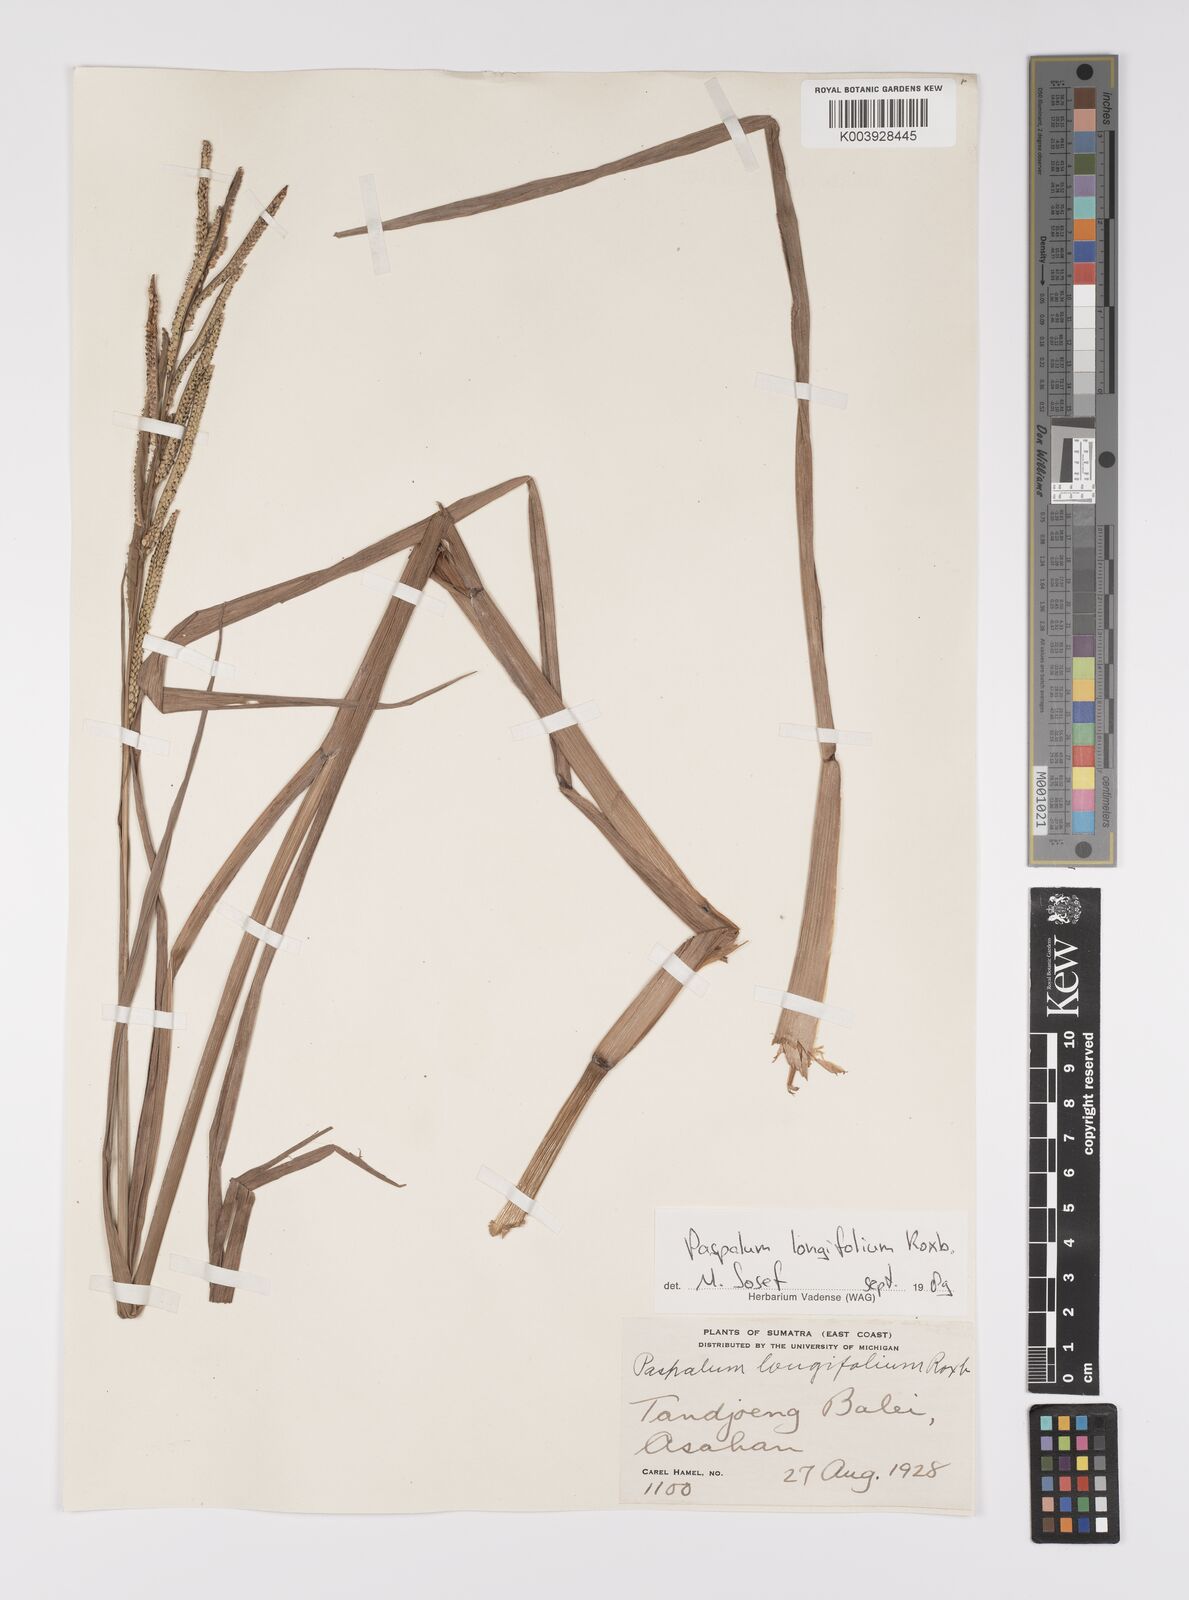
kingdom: Plantae
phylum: Tracheophyta
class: Liliopsida
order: Poales
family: Poaceae
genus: Paspalum
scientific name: Paspalum sumatrense
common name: Long-leaved paspalum
